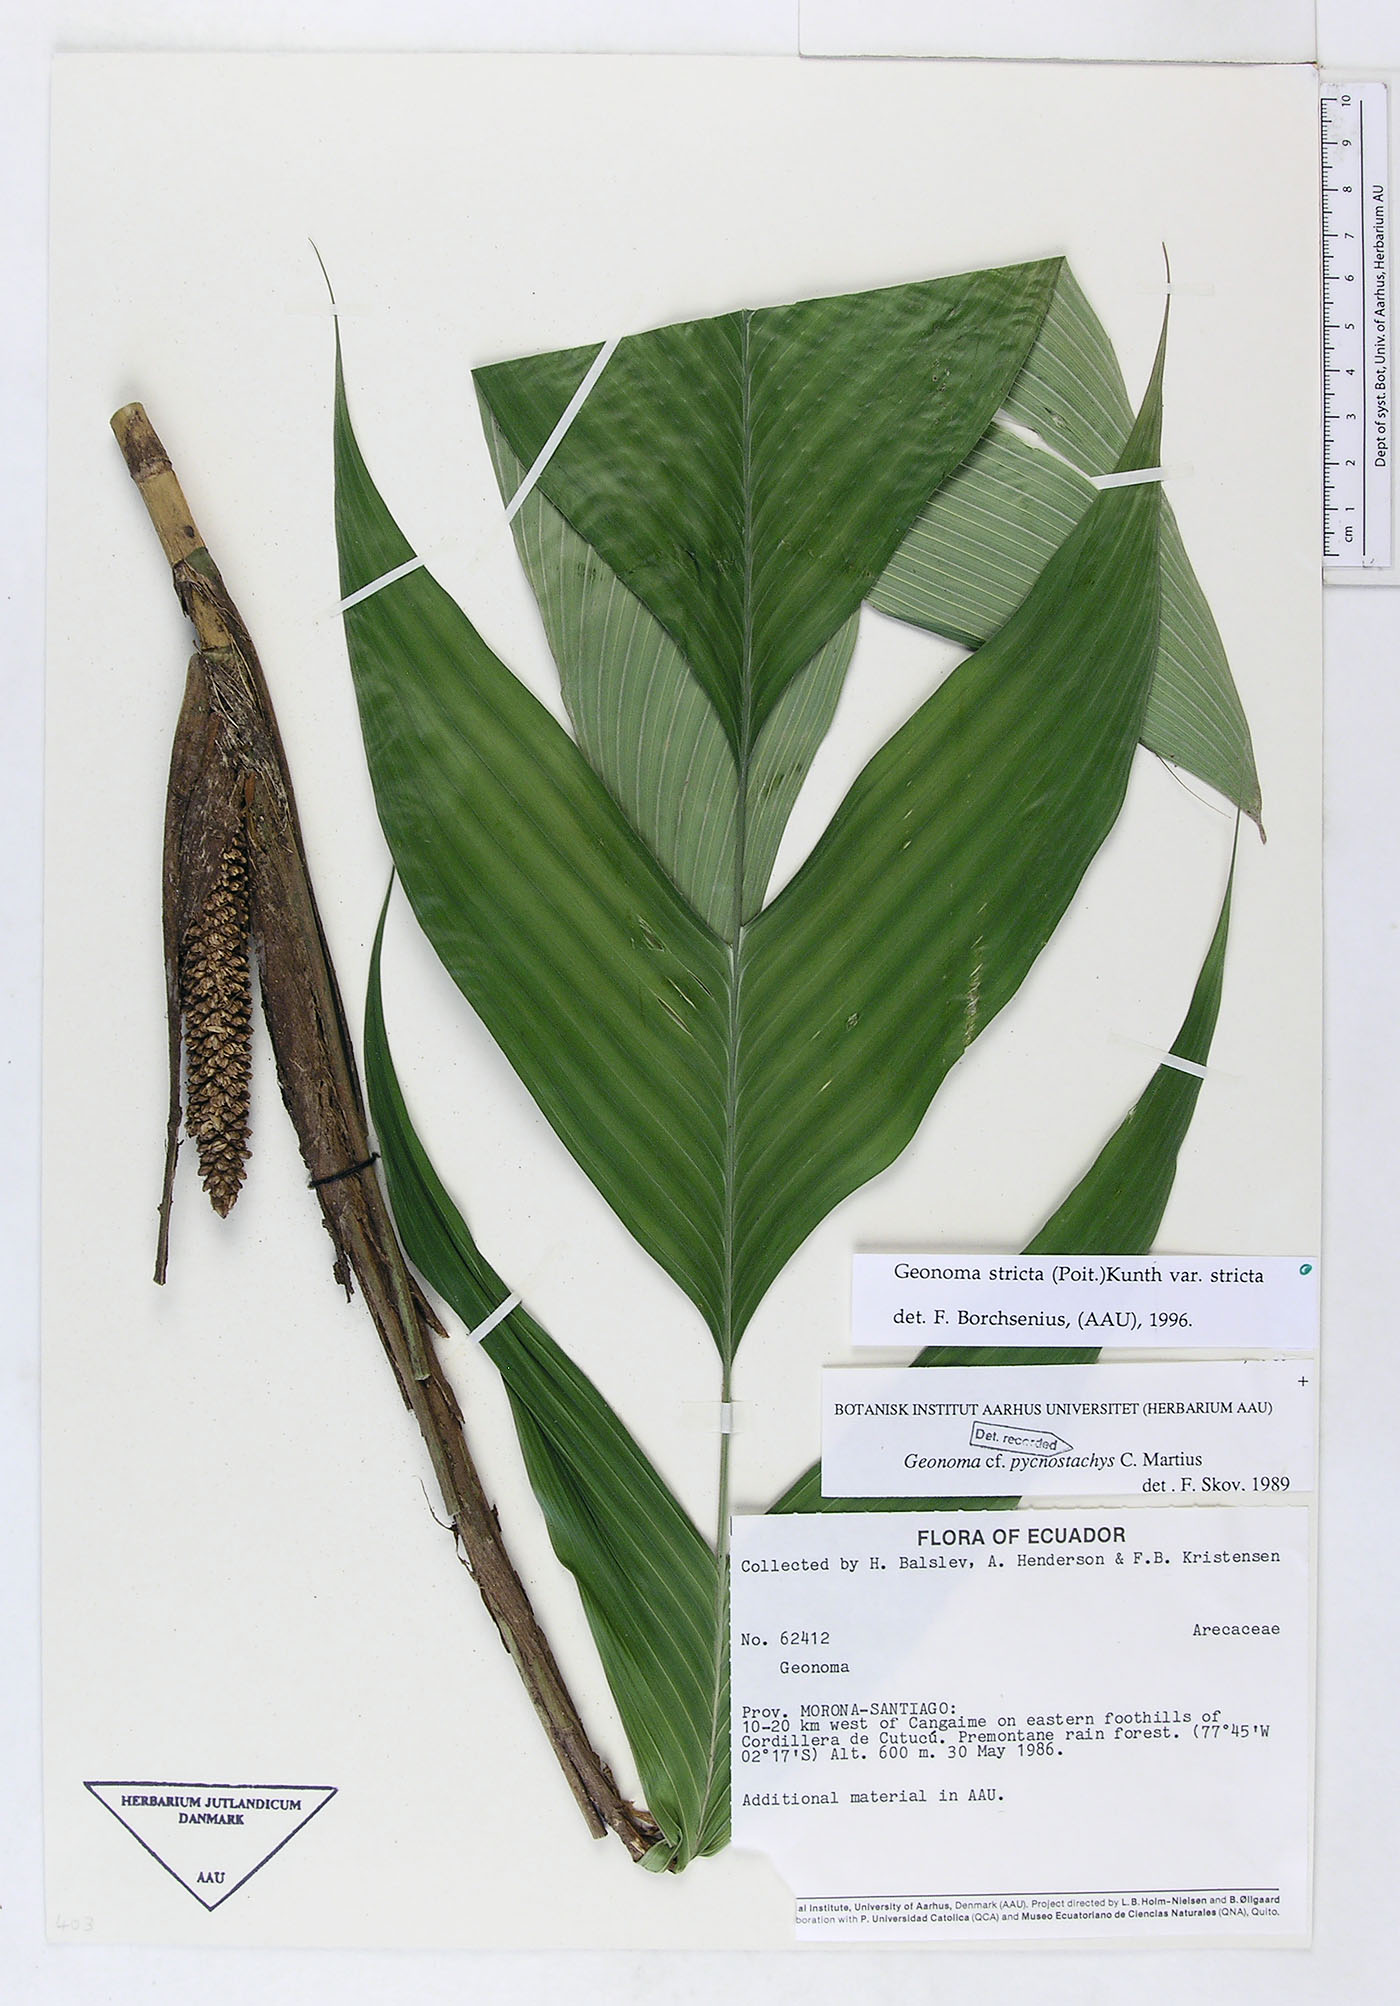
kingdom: Plantae
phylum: Tracheophyta
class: Liliopsida
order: Arecales
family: Arecaceae
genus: Geonoma
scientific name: Geonoma stricta
